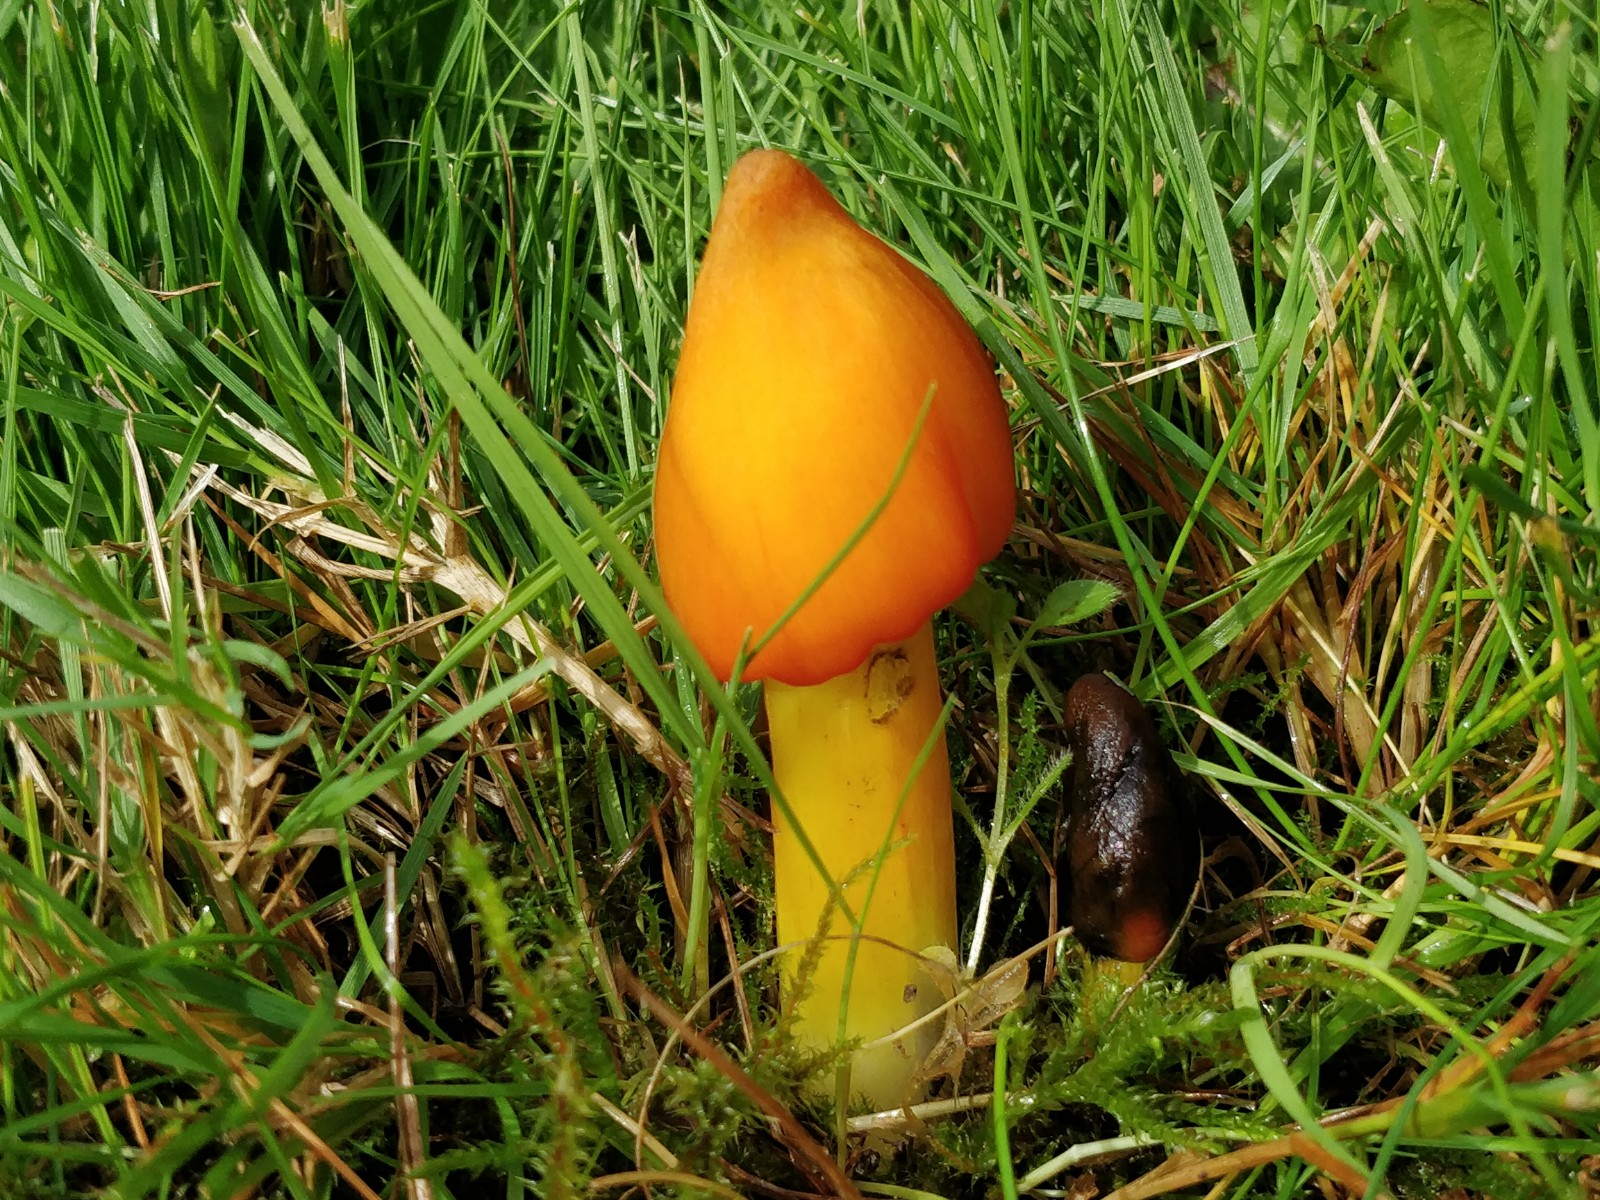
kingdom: Fungi
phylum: Basidiomycota
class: Agaricomycetes
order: Agaricales
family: Hygrophoraceae
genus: Hygrocybe
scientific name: Hygrocybe conica
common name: kegle-vokshat
